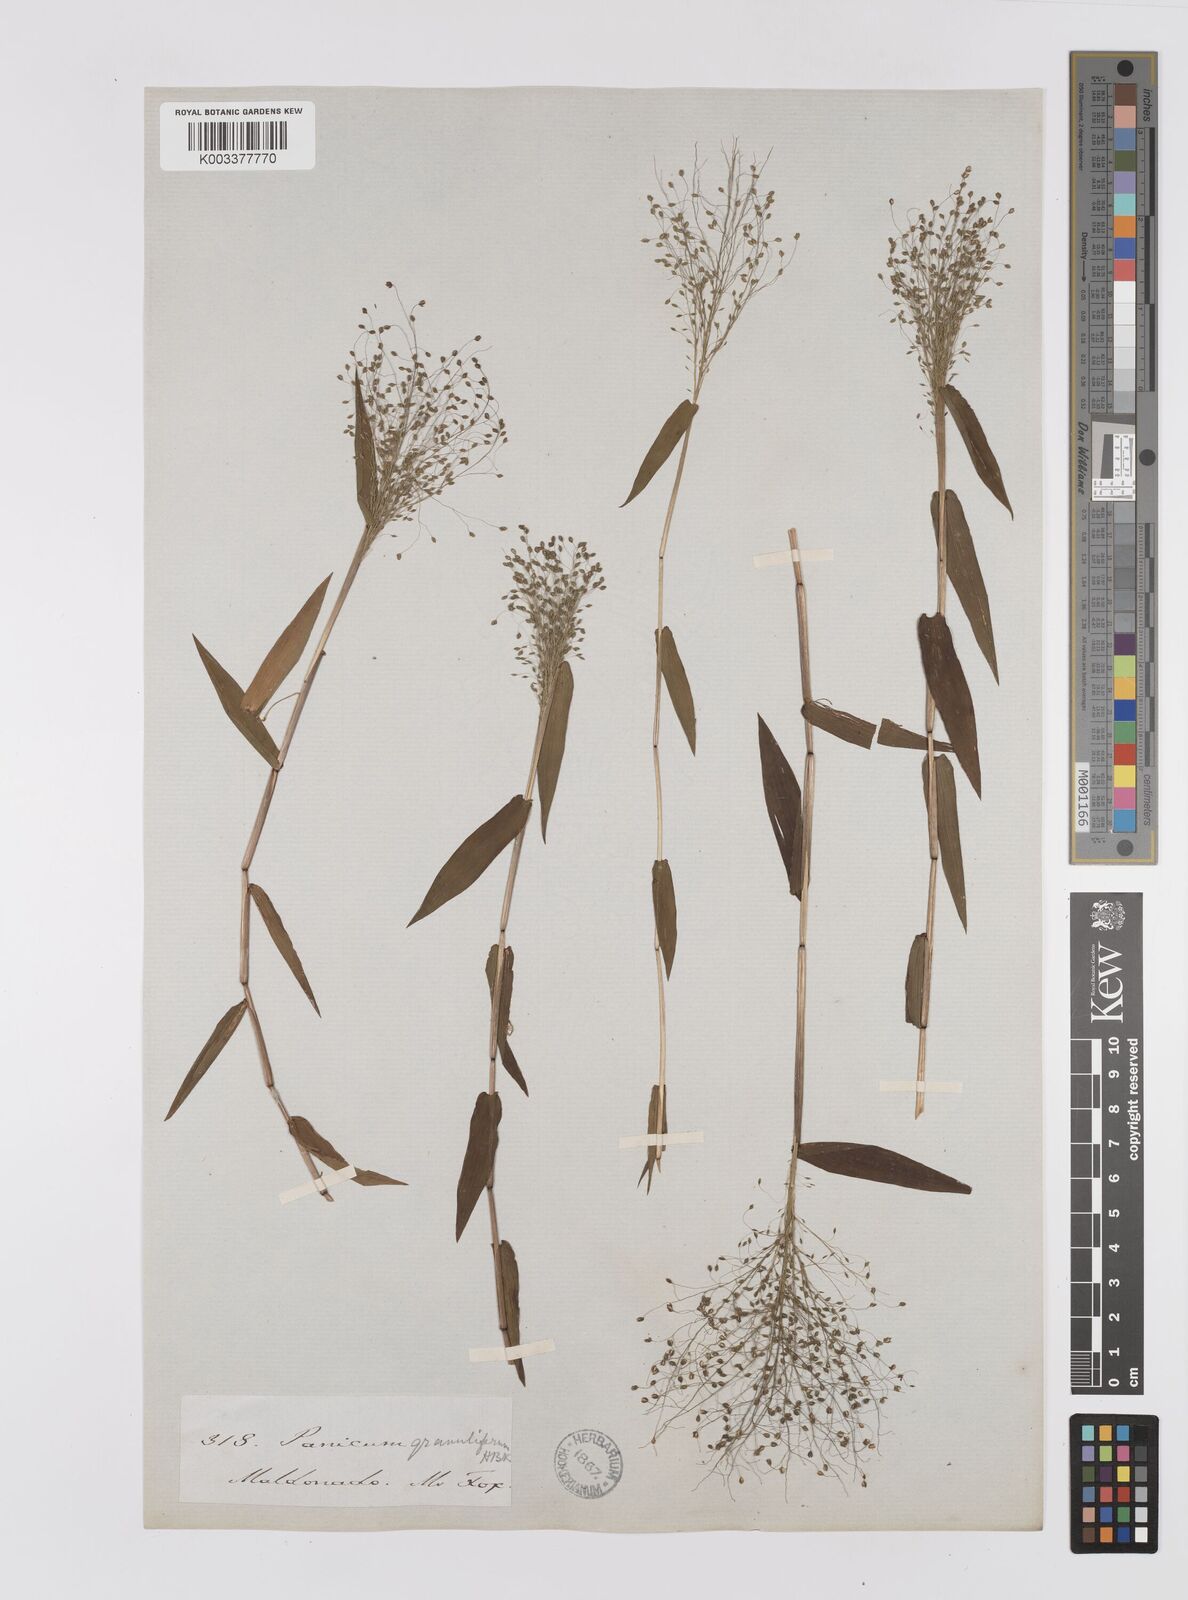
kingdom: Plantae
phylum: Tracheophyta
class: Liliopsida
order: Poales
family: Poaceae
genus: Trichanthecium
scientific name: Trichanthecium schwackeanum
